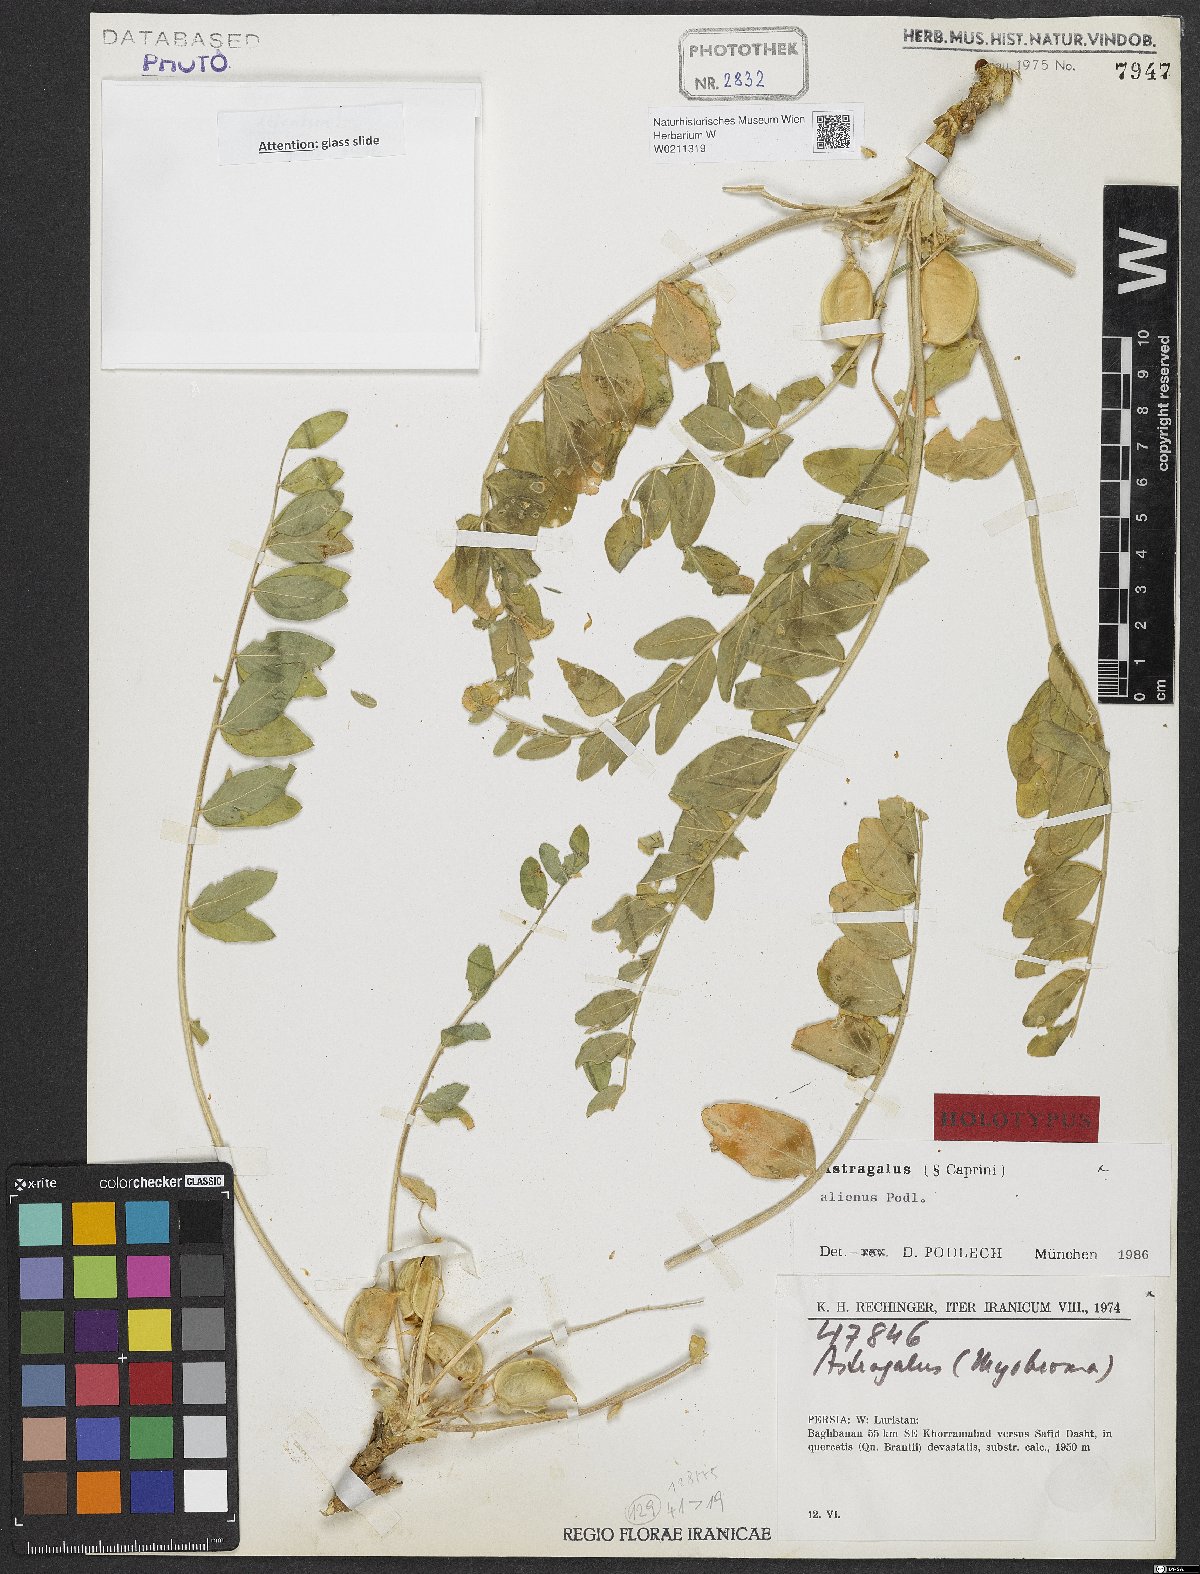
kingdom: Plantae
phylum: Tracheophyta
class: Magnoliopsida
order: Fabales
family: Fabaceae
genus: Astragalus
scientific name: Astragalus allectus
